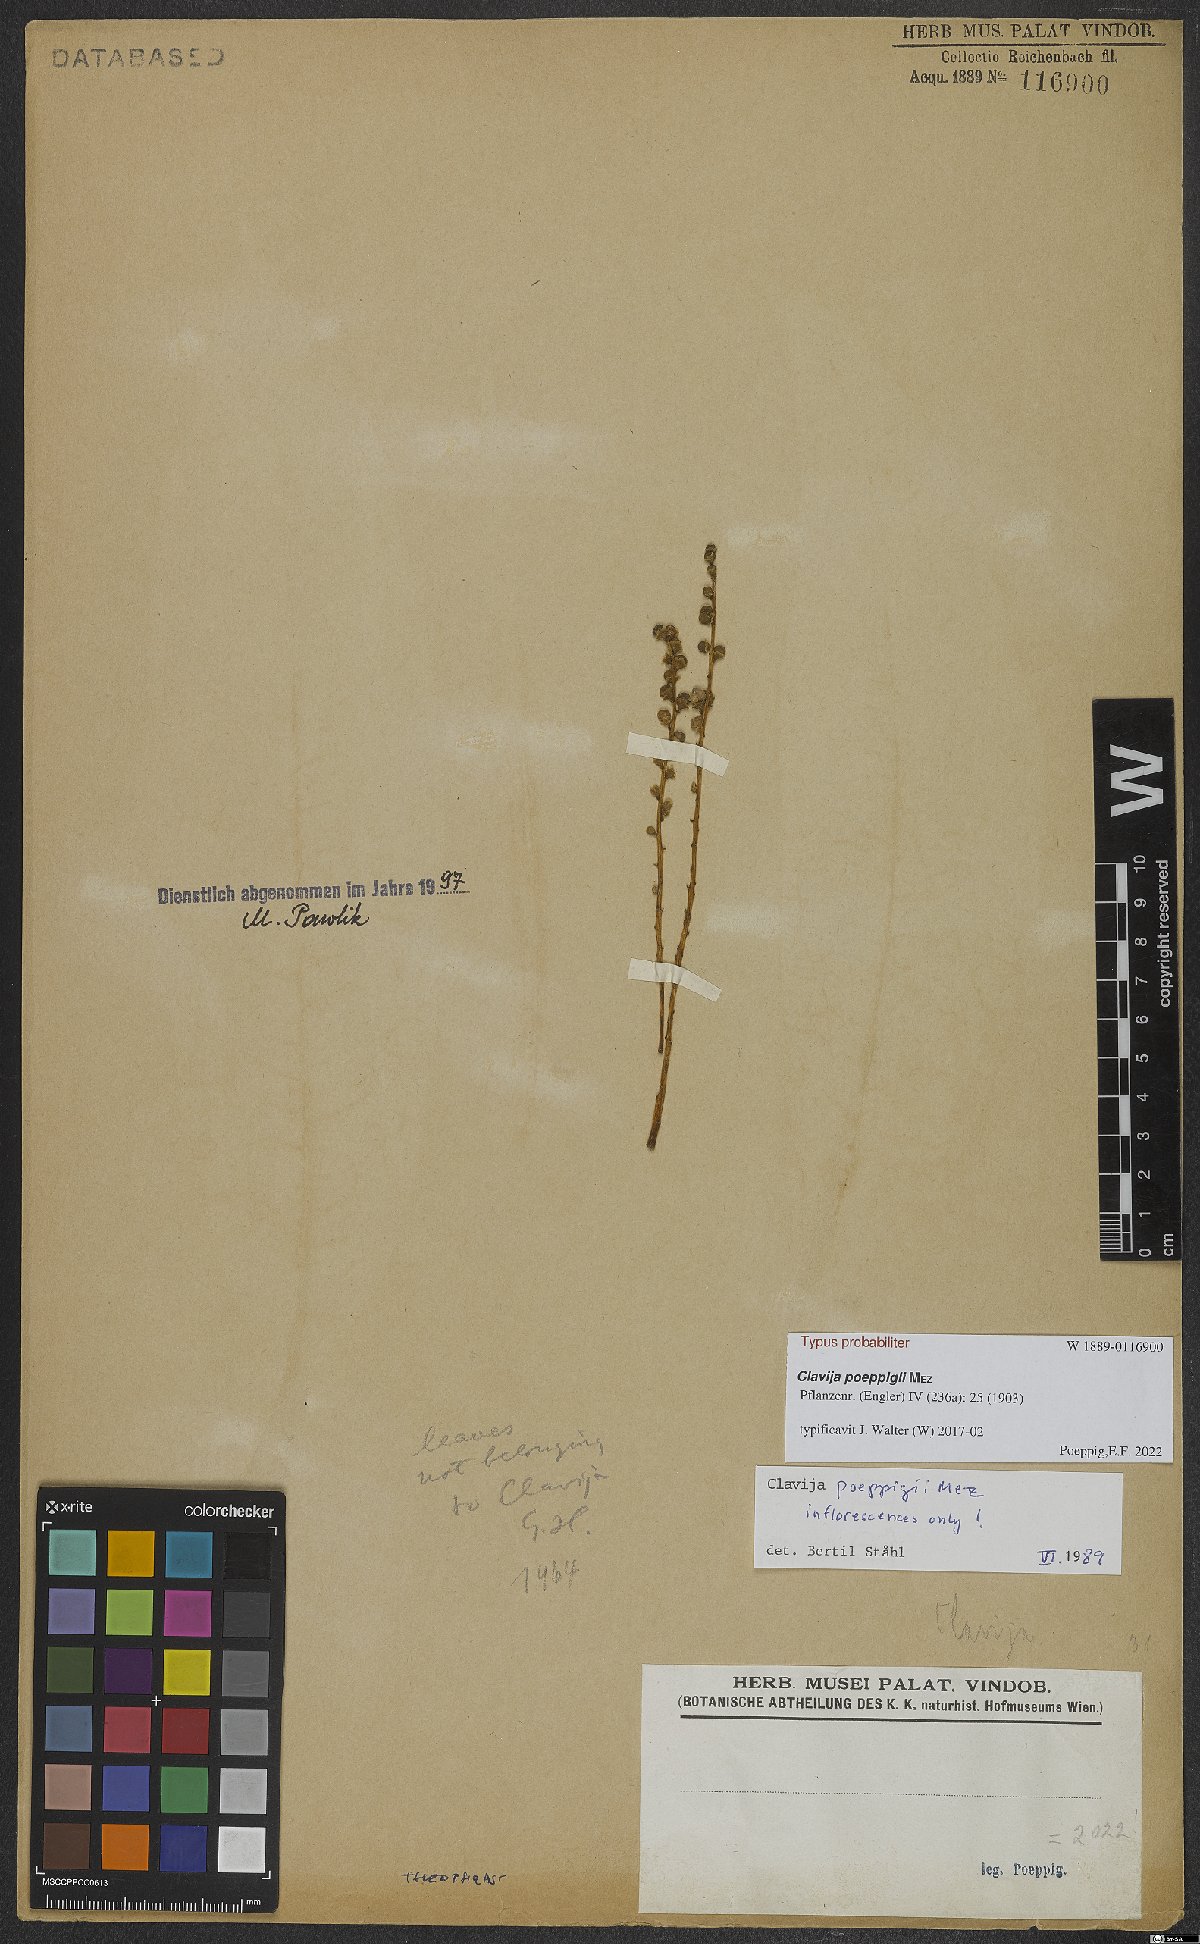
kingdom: Plantae
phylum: Tracheophyta
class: Magnoliopsida
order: Ericales
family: Primulaceae
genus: Clavija
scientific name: Clavija poeppigii
